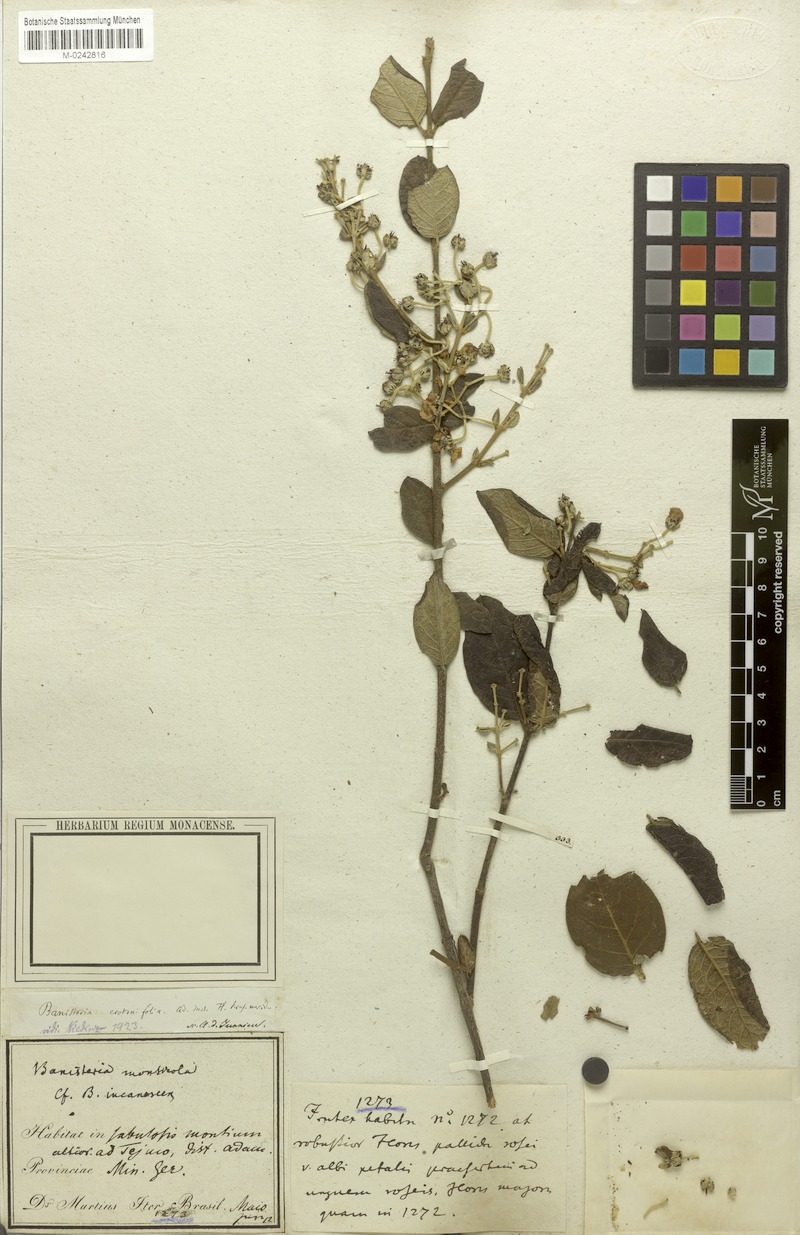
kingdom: Plantae
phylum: Tracheophyta
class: Magnoliopsida
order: Malpighiales
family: Malpighiaceae
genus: Banisteriopsis
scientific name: Banisteriopsis malifolia
